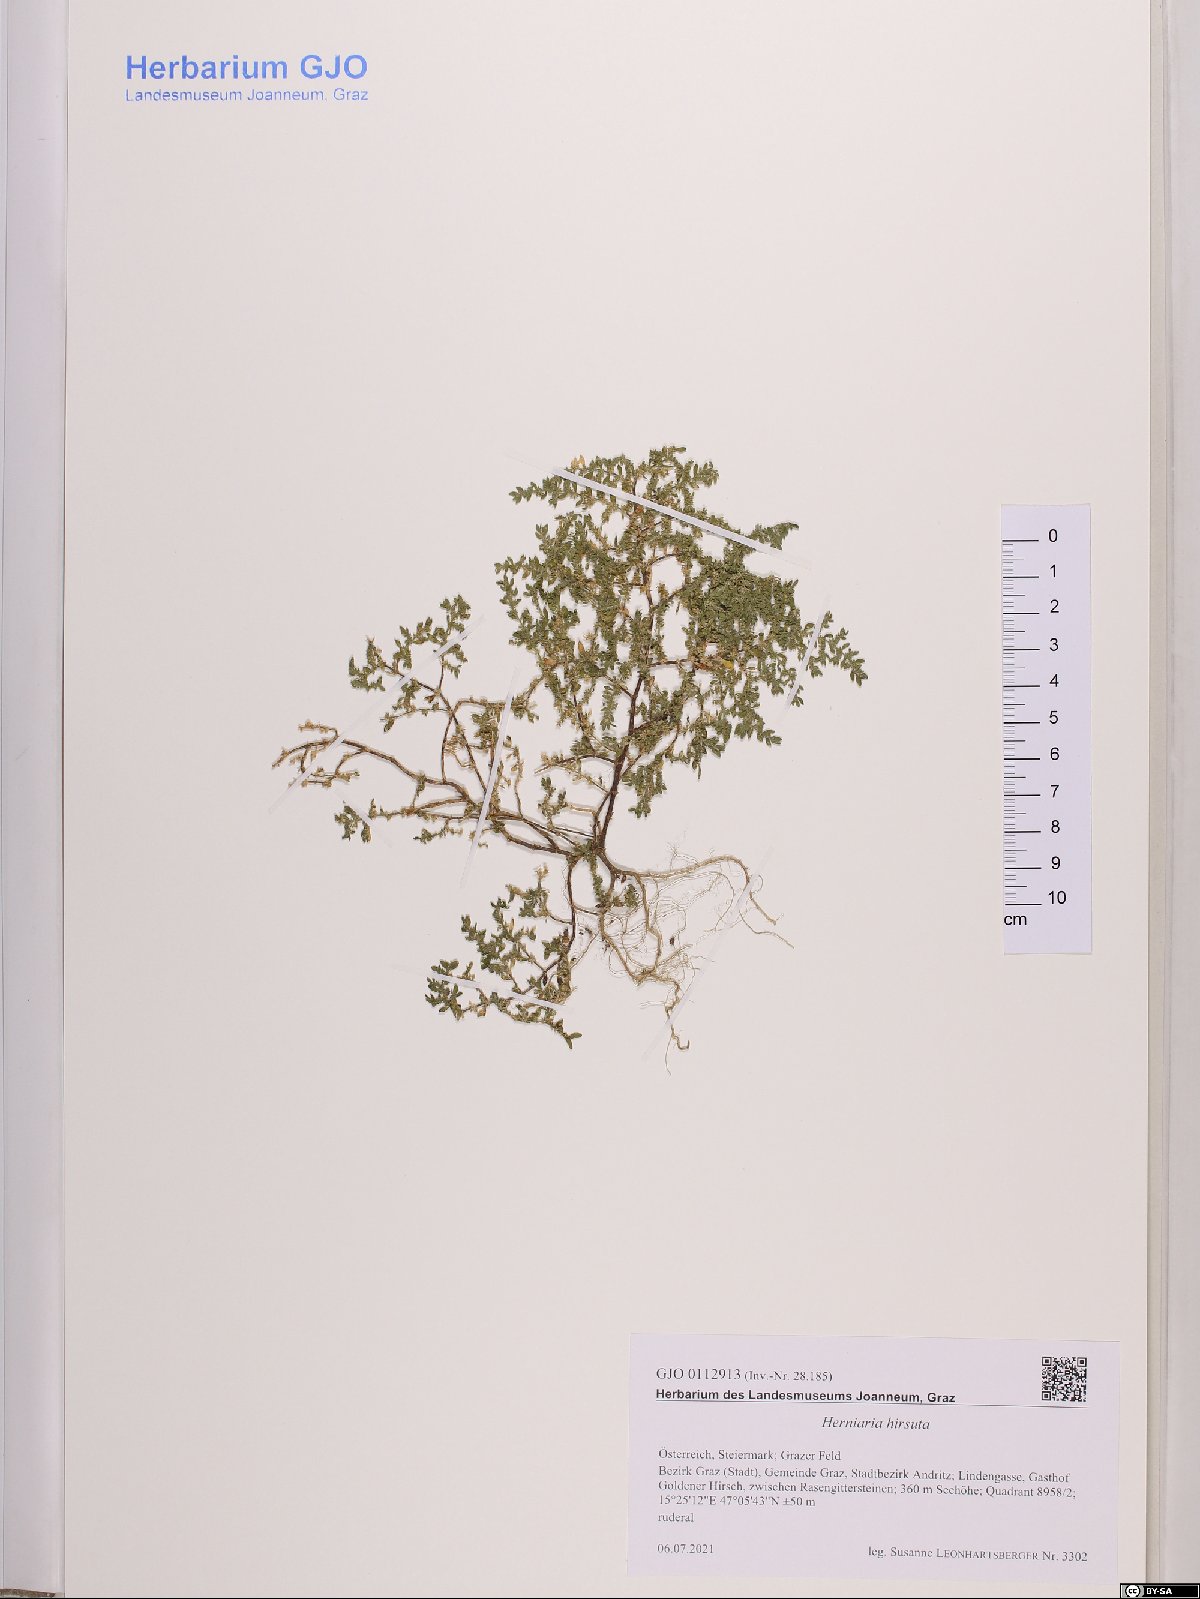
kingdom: Plantae
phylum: Tracheophyta
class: Magnoliopsida
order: Caryophyllales
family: Caryophyllaceae
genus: Herniaria
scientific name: Herniaria hirsuta
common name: Hairy rupturewort
